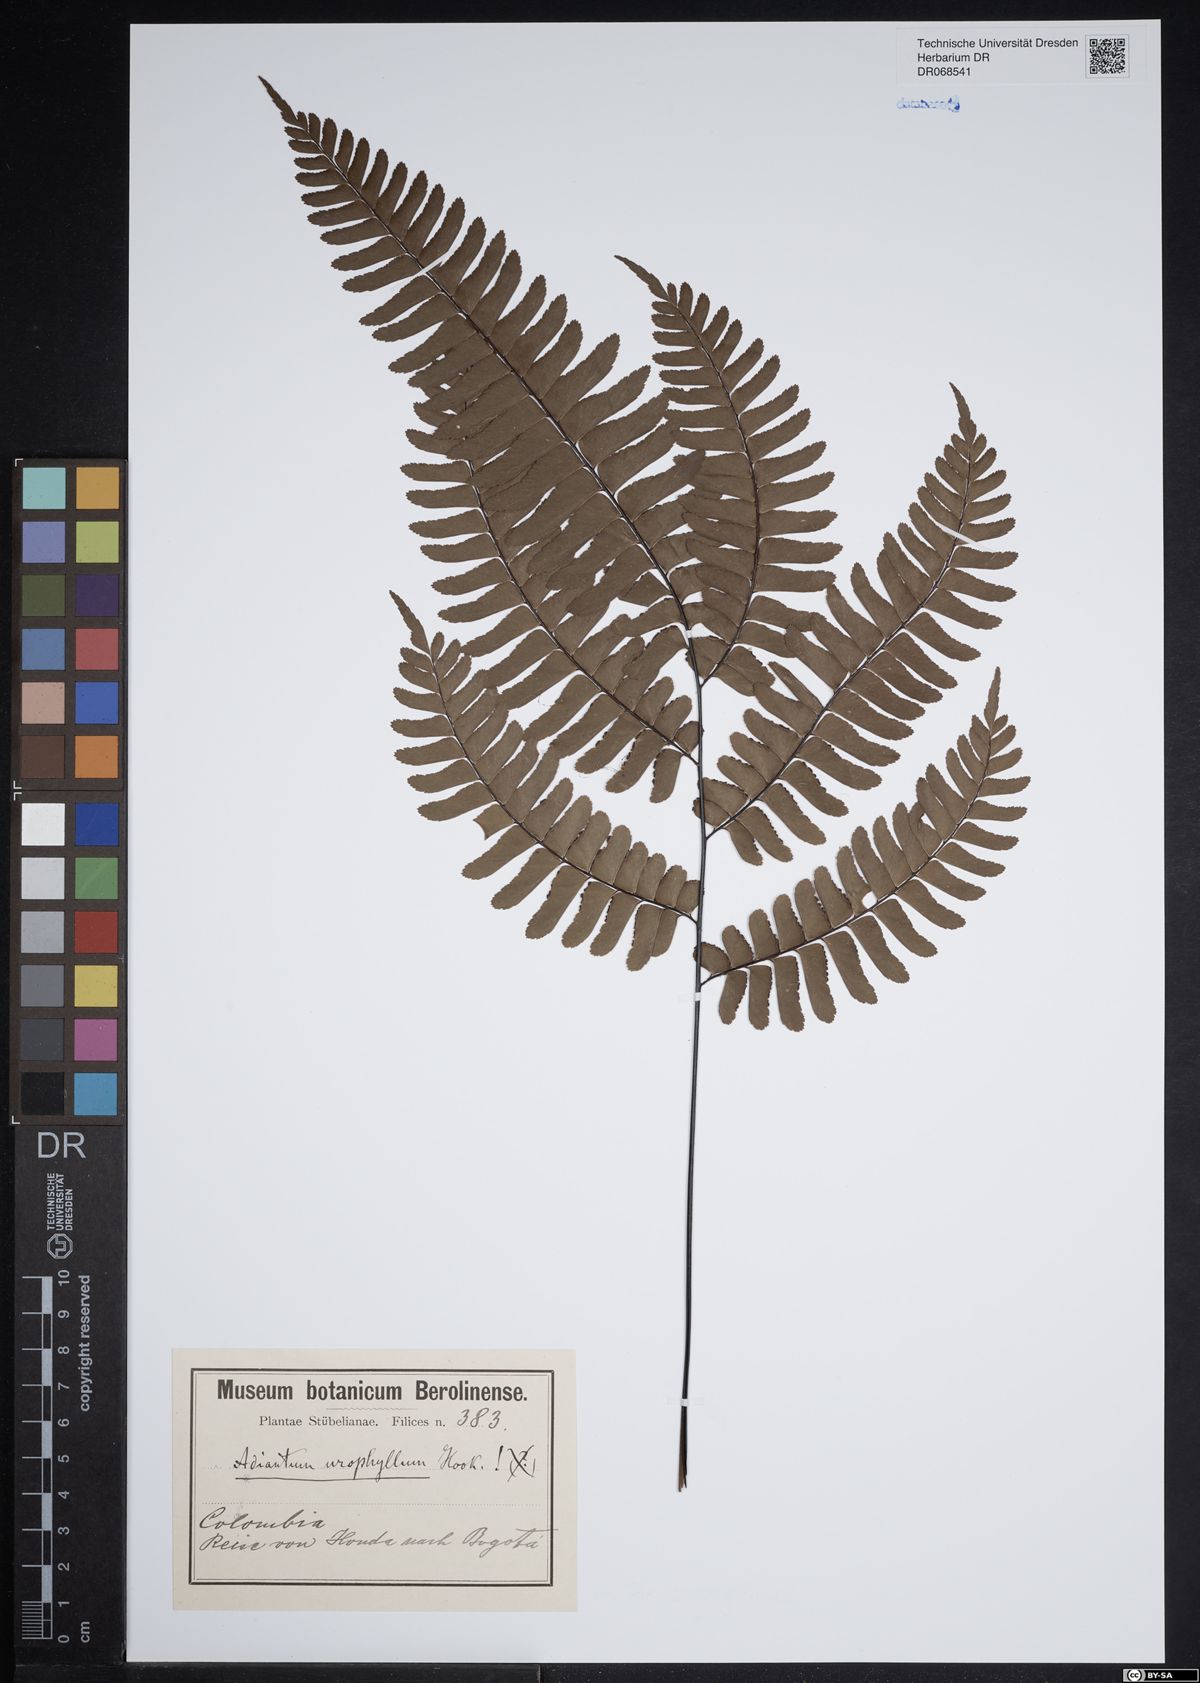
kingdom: Plantae
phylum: Tracheophyta
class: Polypodiopsida
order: Polypodiales
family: Pteridaceae
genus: Adiantum
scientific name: Adiantum urophyllum
